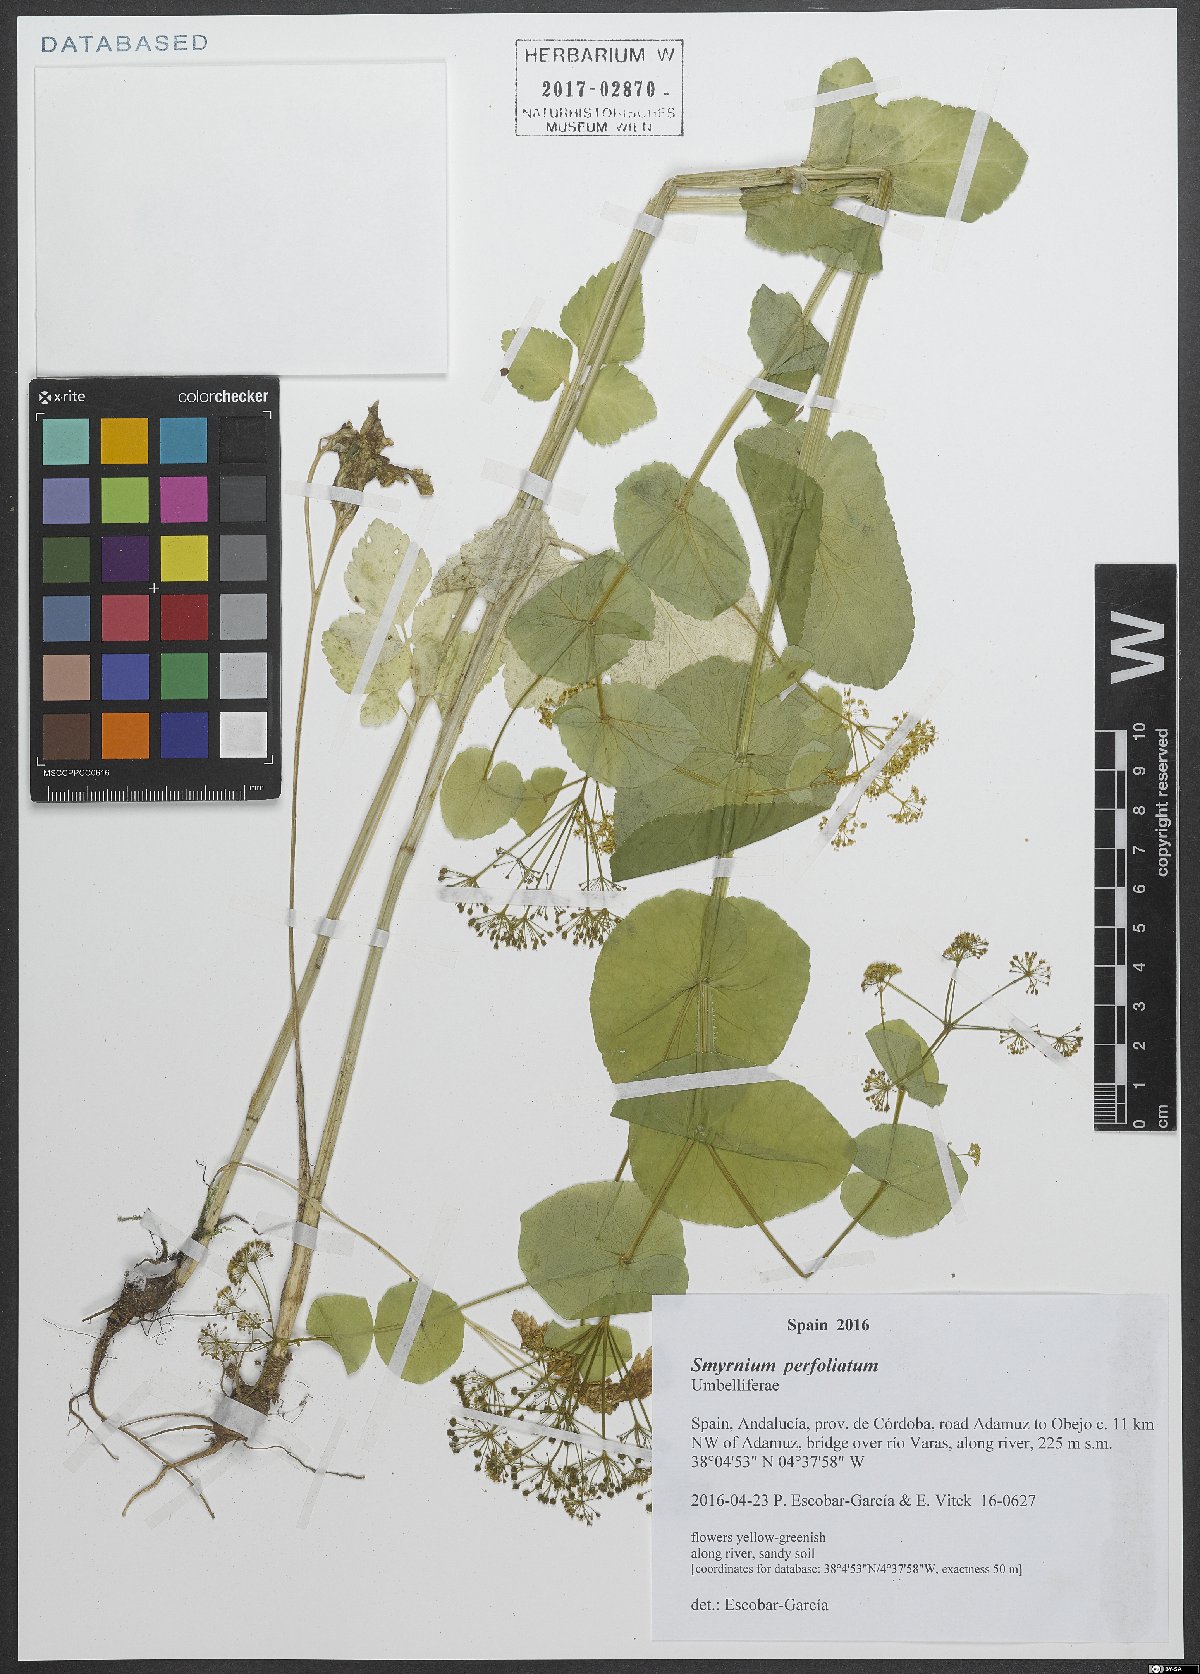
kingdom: Plantae
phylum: Tracheophyta
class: Magnoliopsida
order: Apiales
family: Apiaceae
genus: Smyrnium
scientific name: Smyrnium perfoliatum
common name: Perfoliate alexanders
